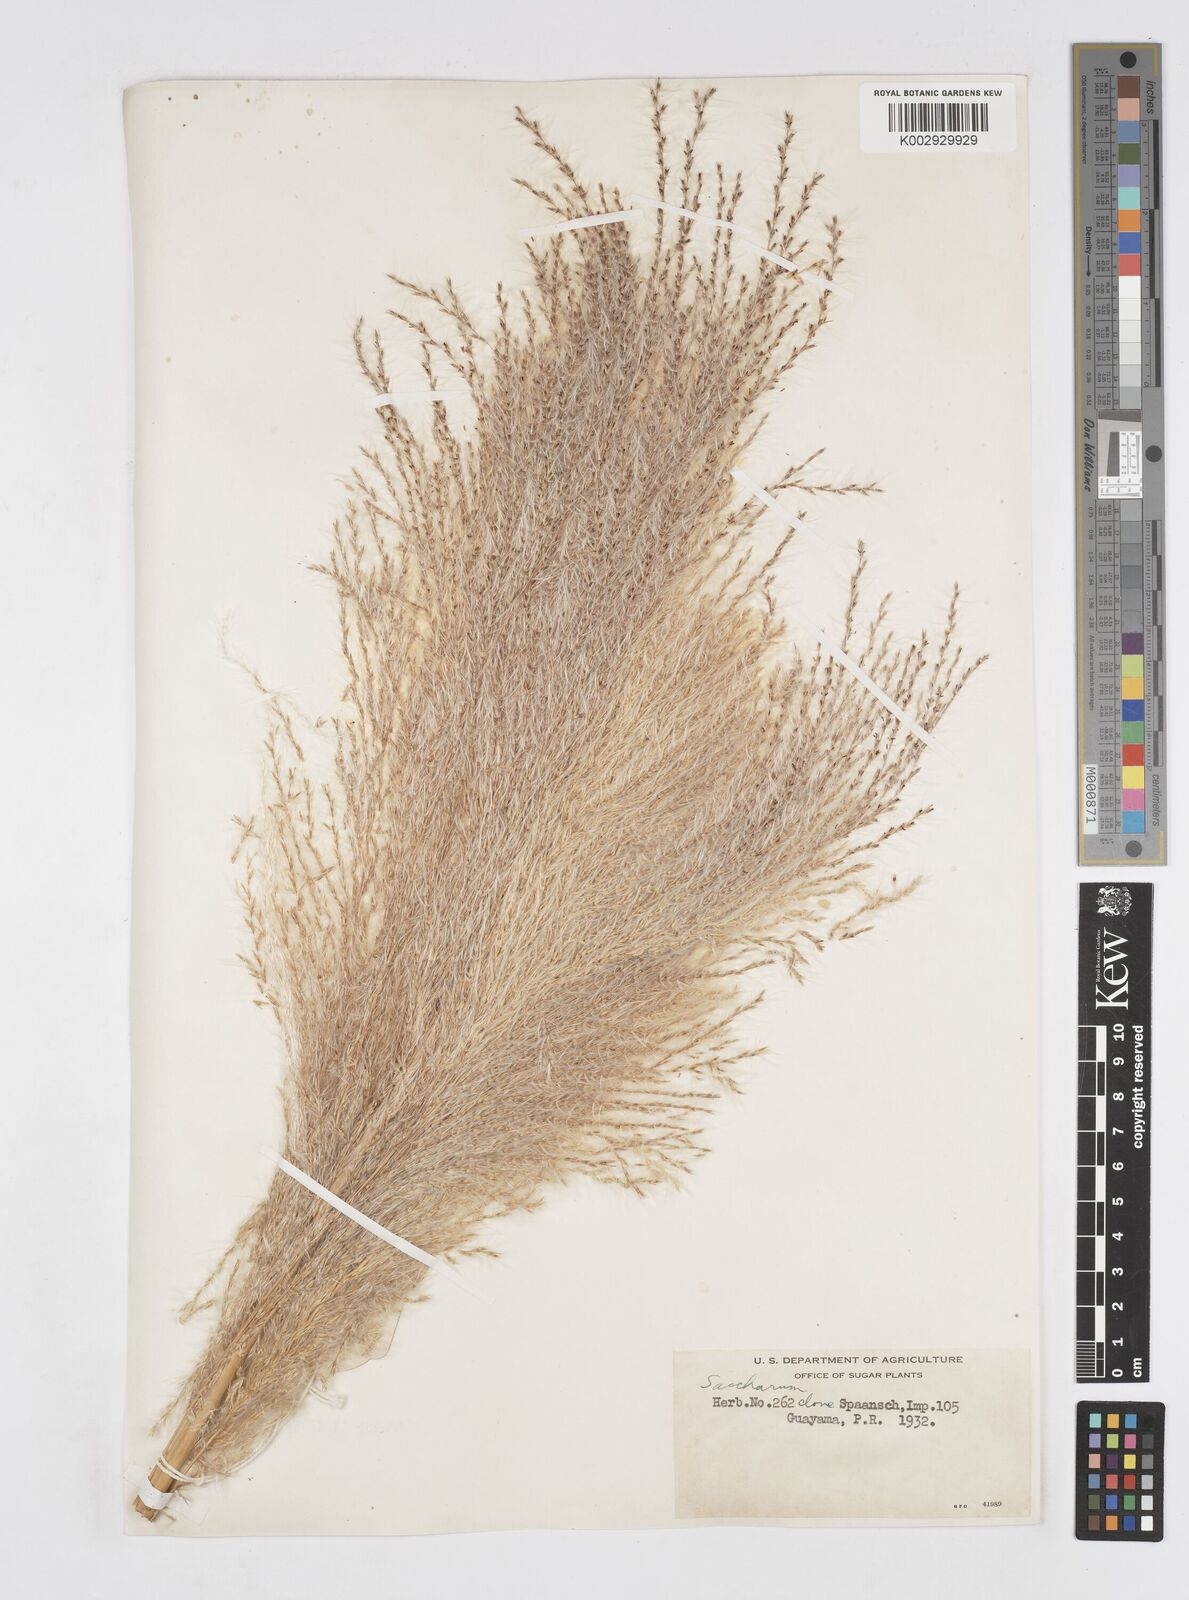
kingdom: Plantae
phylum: Tracheophyta
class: Liliopsida
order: Poales
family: Poaceae
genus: Saccharum
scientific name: Saccharum officinarum
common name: Sugarcane
